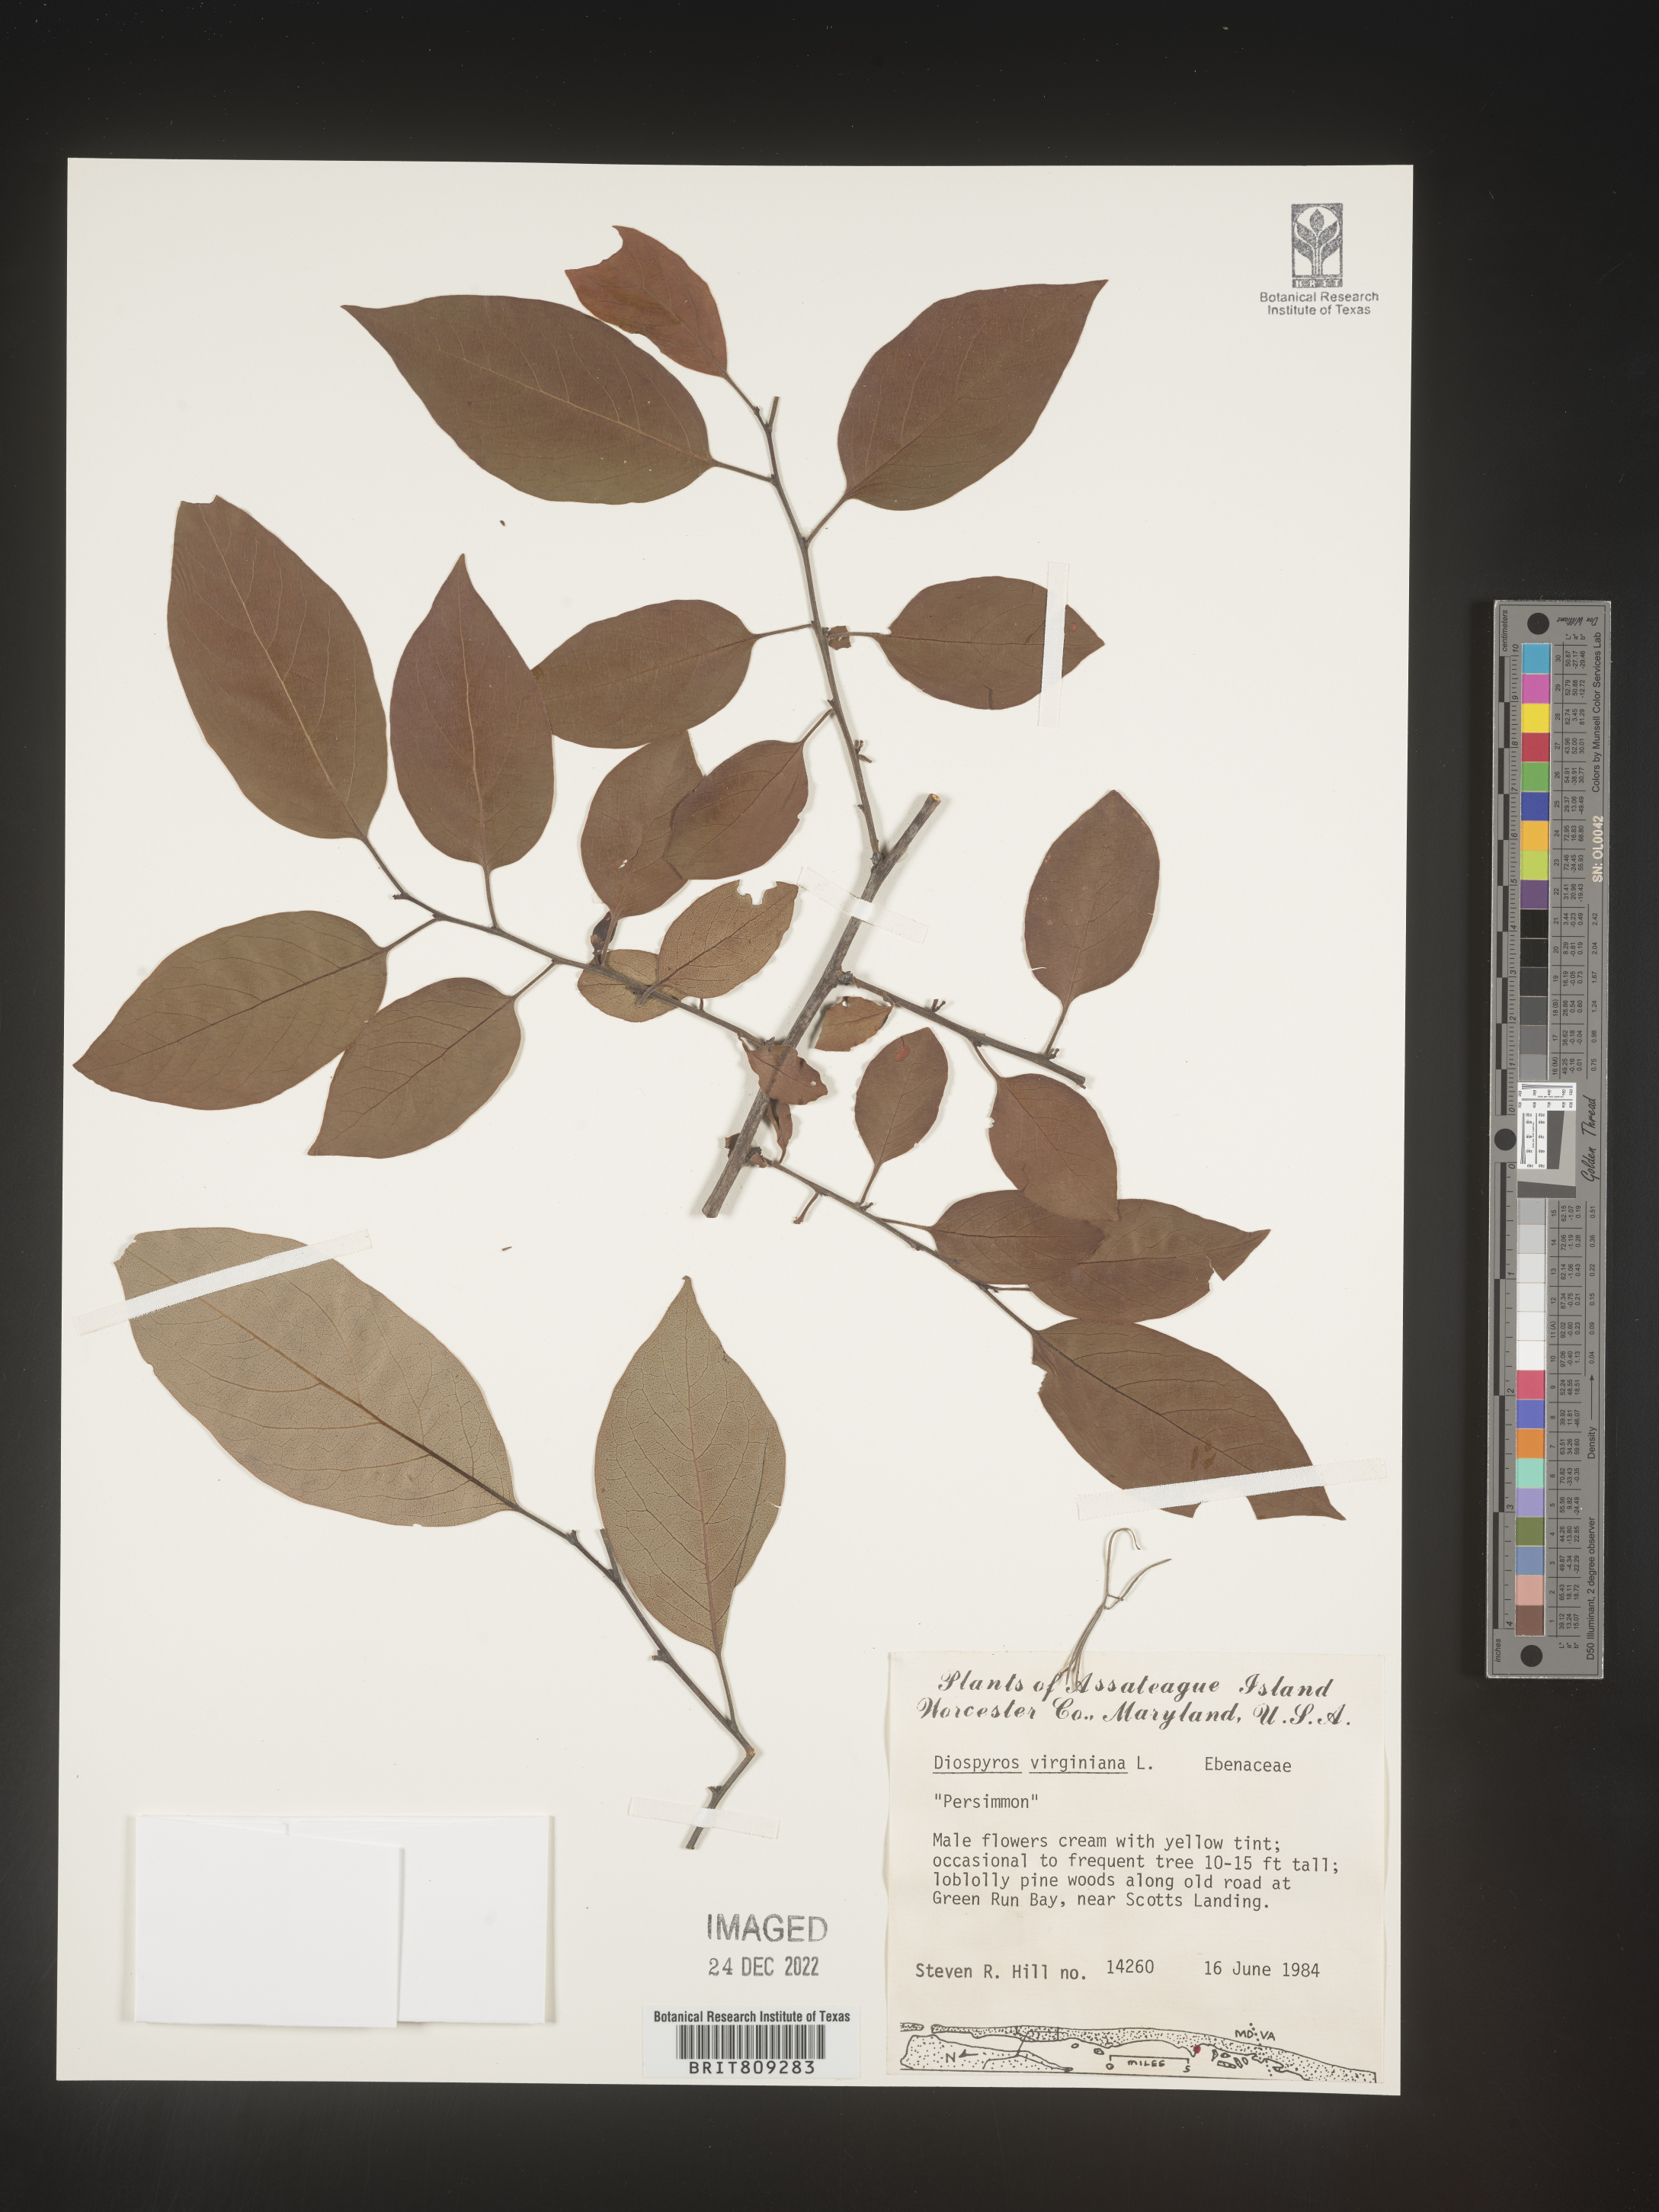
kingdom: Plantae
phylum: Tracheophyta
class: Magnoliopsida
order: Ericales
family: Ebenaceae
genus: Diospyros
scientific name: Diospyros virginiana
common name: Persimmon
